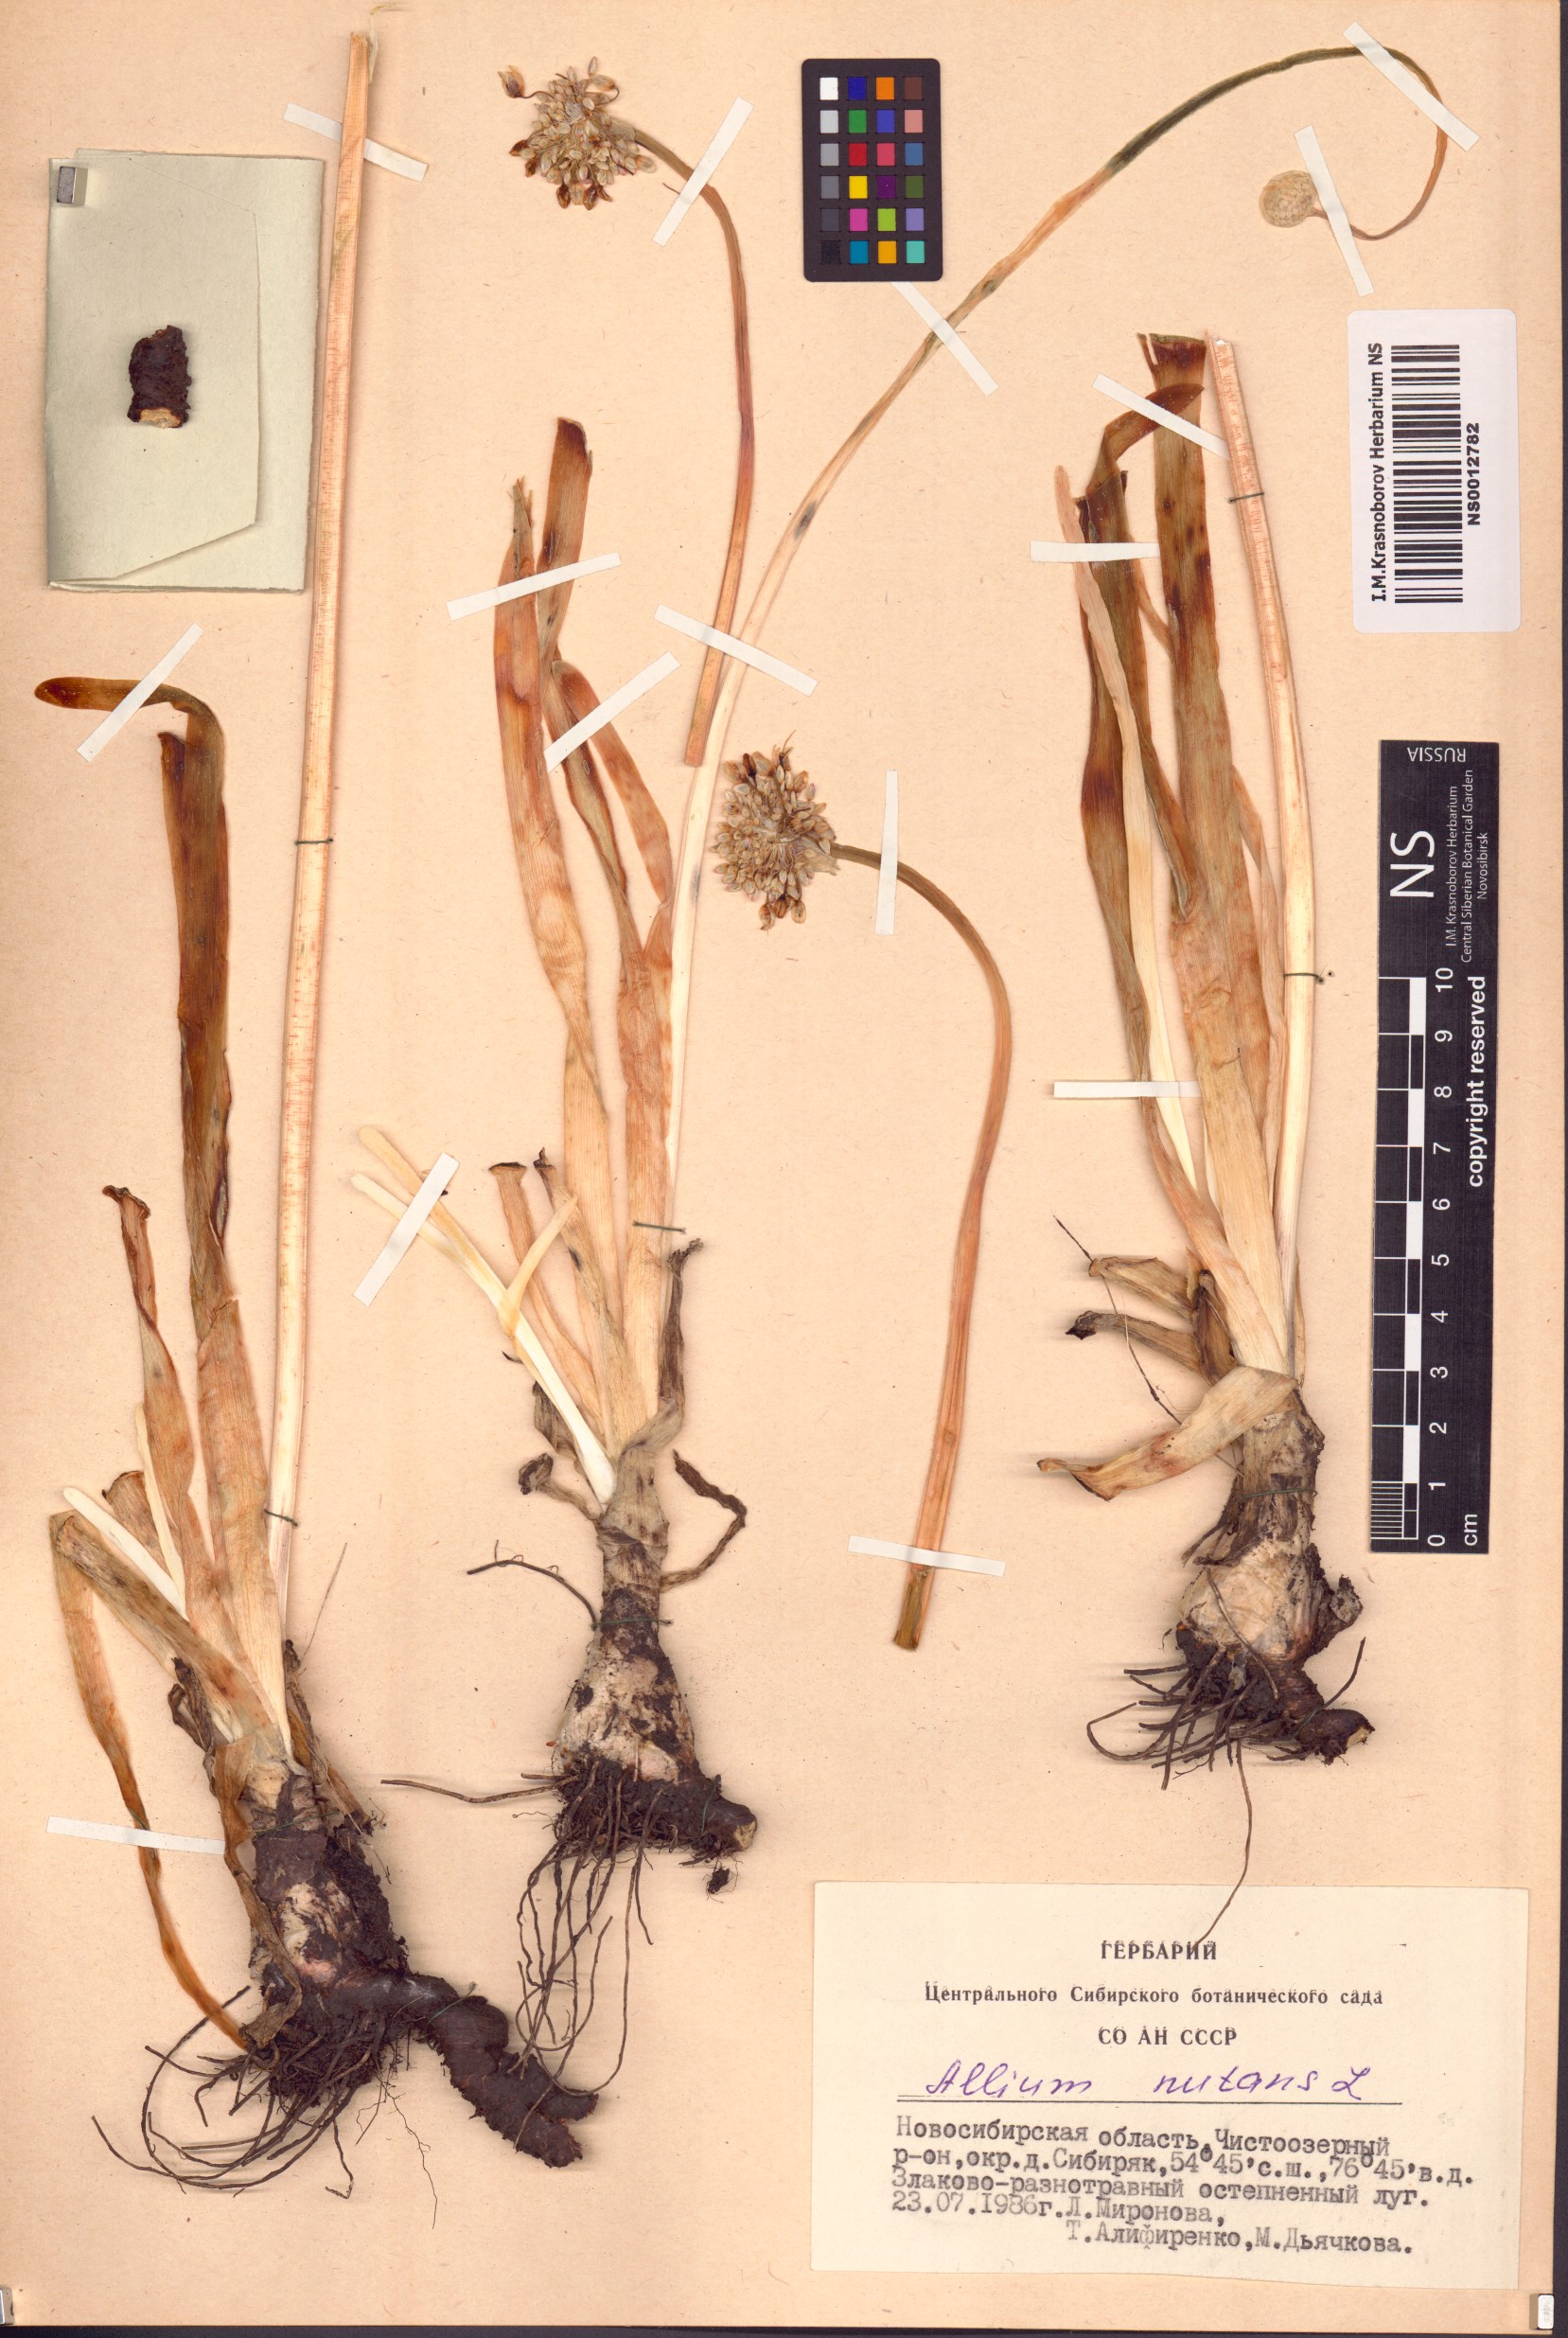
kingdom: Plantae
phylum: Tracheophyta
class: Liliopsida
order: Asparagales
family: Amaryllidaceae
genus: Allium
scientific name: Allium nutans
